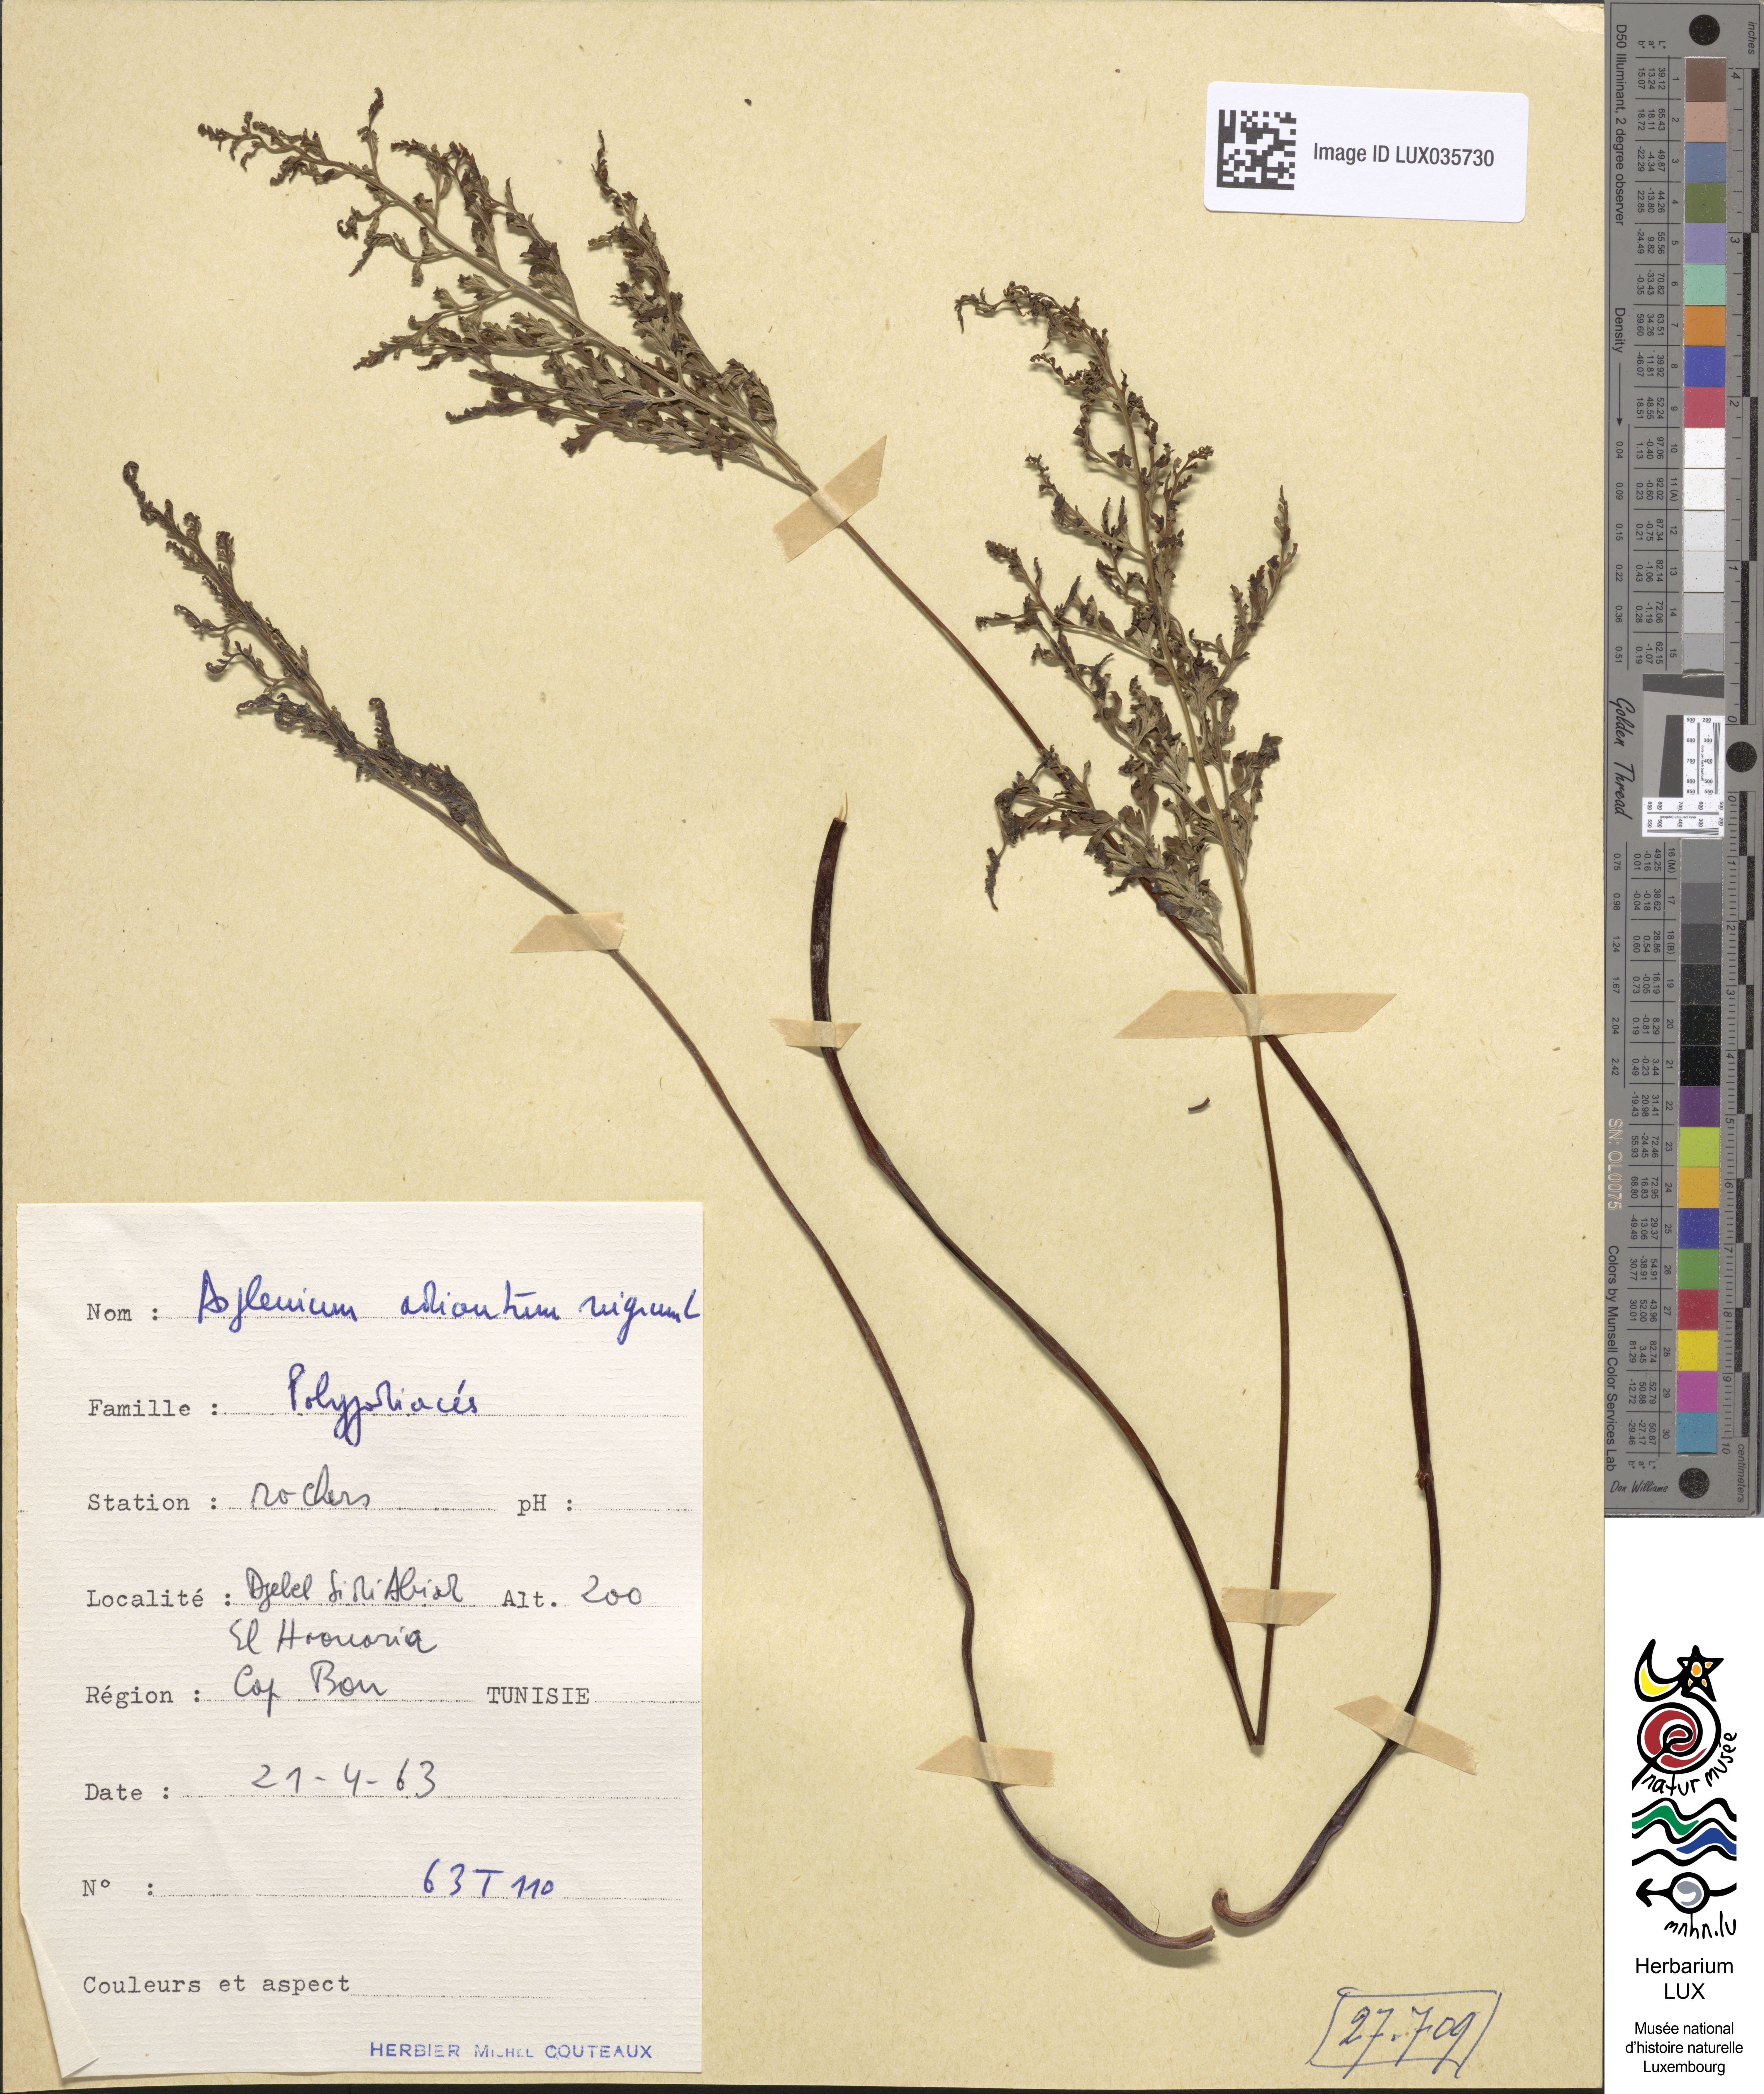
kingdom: Plantae
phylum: Tracheophyta
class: Polypodiopsida
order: Polypodiales
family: Aspleniaceae
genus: Asplenium
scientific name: Asplenium adiantum-nigrum
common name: Black spleenwort
